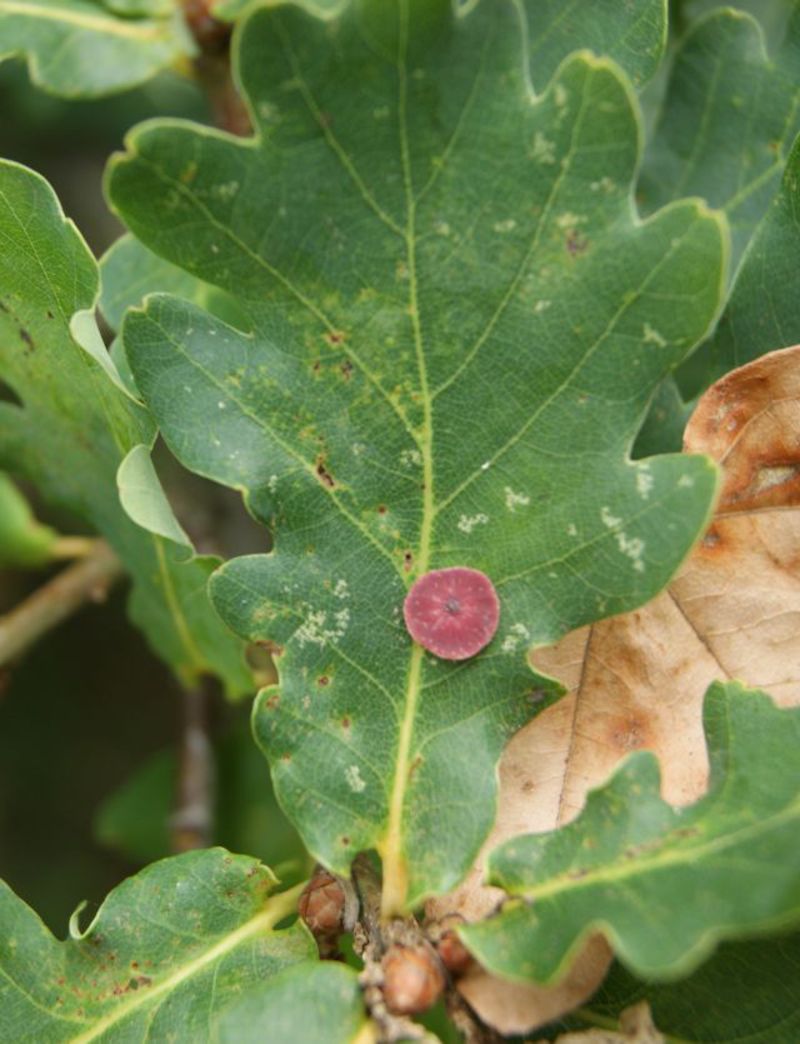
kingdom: Animalia
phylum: Arthropoda
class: Insecta
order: Hymenoptera
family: Cynipidae
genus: Neuroterus
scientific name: Neuroterus albipes
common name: Smooth spangle gall
